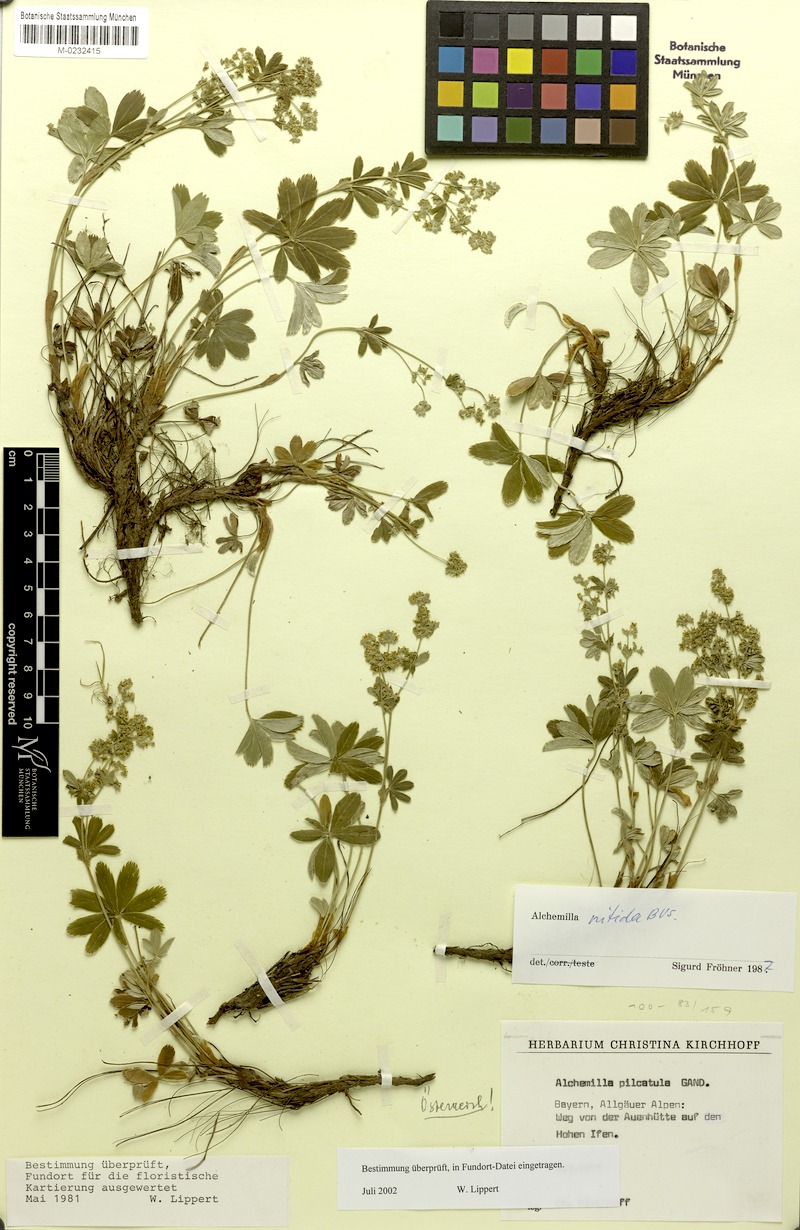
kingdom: Plantae
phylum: Tracheophyta
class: Magnoliopsida
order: Rosales
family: Rosaceae
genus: Alchemilla
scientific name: Alchemilla nitida
